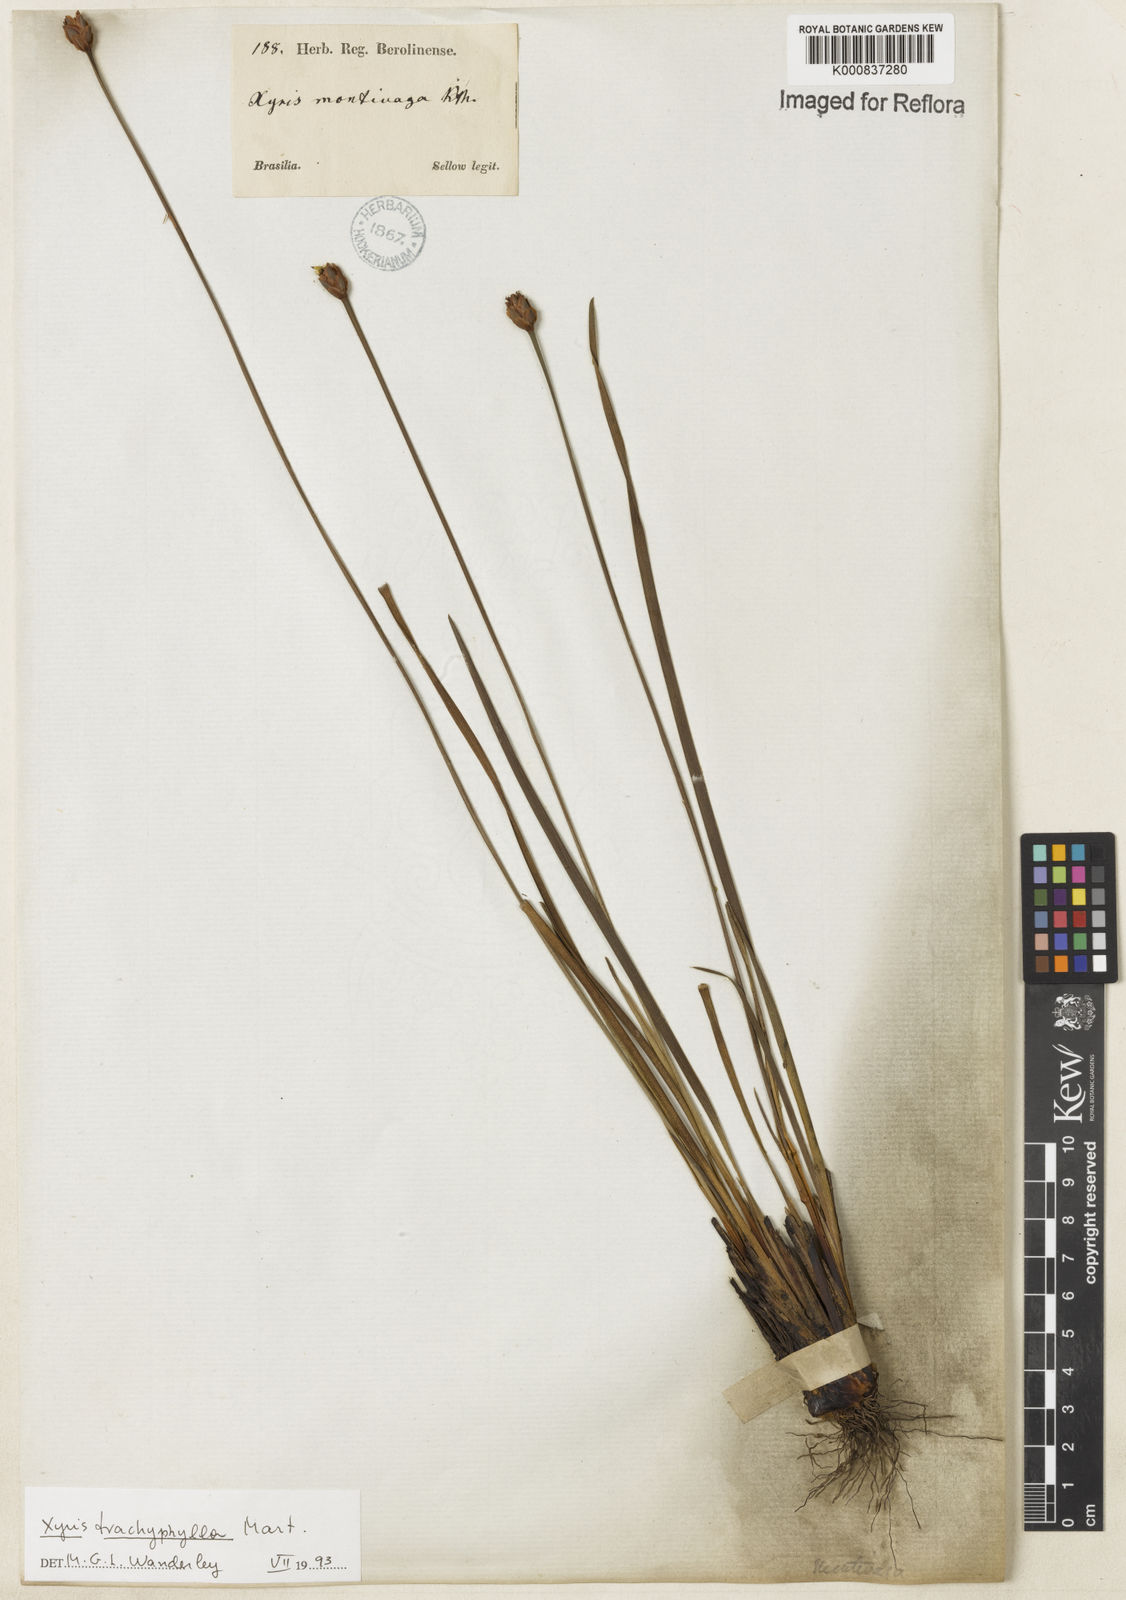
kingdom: Plantae
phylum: Tracheophyta
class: Liliopsida
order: Poales
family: Xyridaceae
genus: Xyris
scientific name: Xyris trachyphylla
